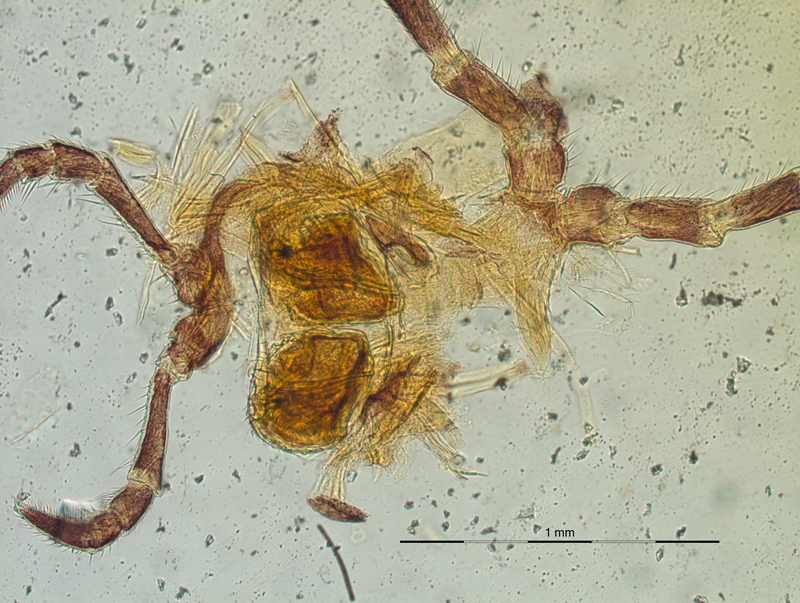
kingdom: Animalia
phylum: Arthropoda
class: Diplopoda
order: Chordeumatida
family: Craspedosomatidae
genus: Craspedosoma
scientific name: Craspedosoma alemannicum
